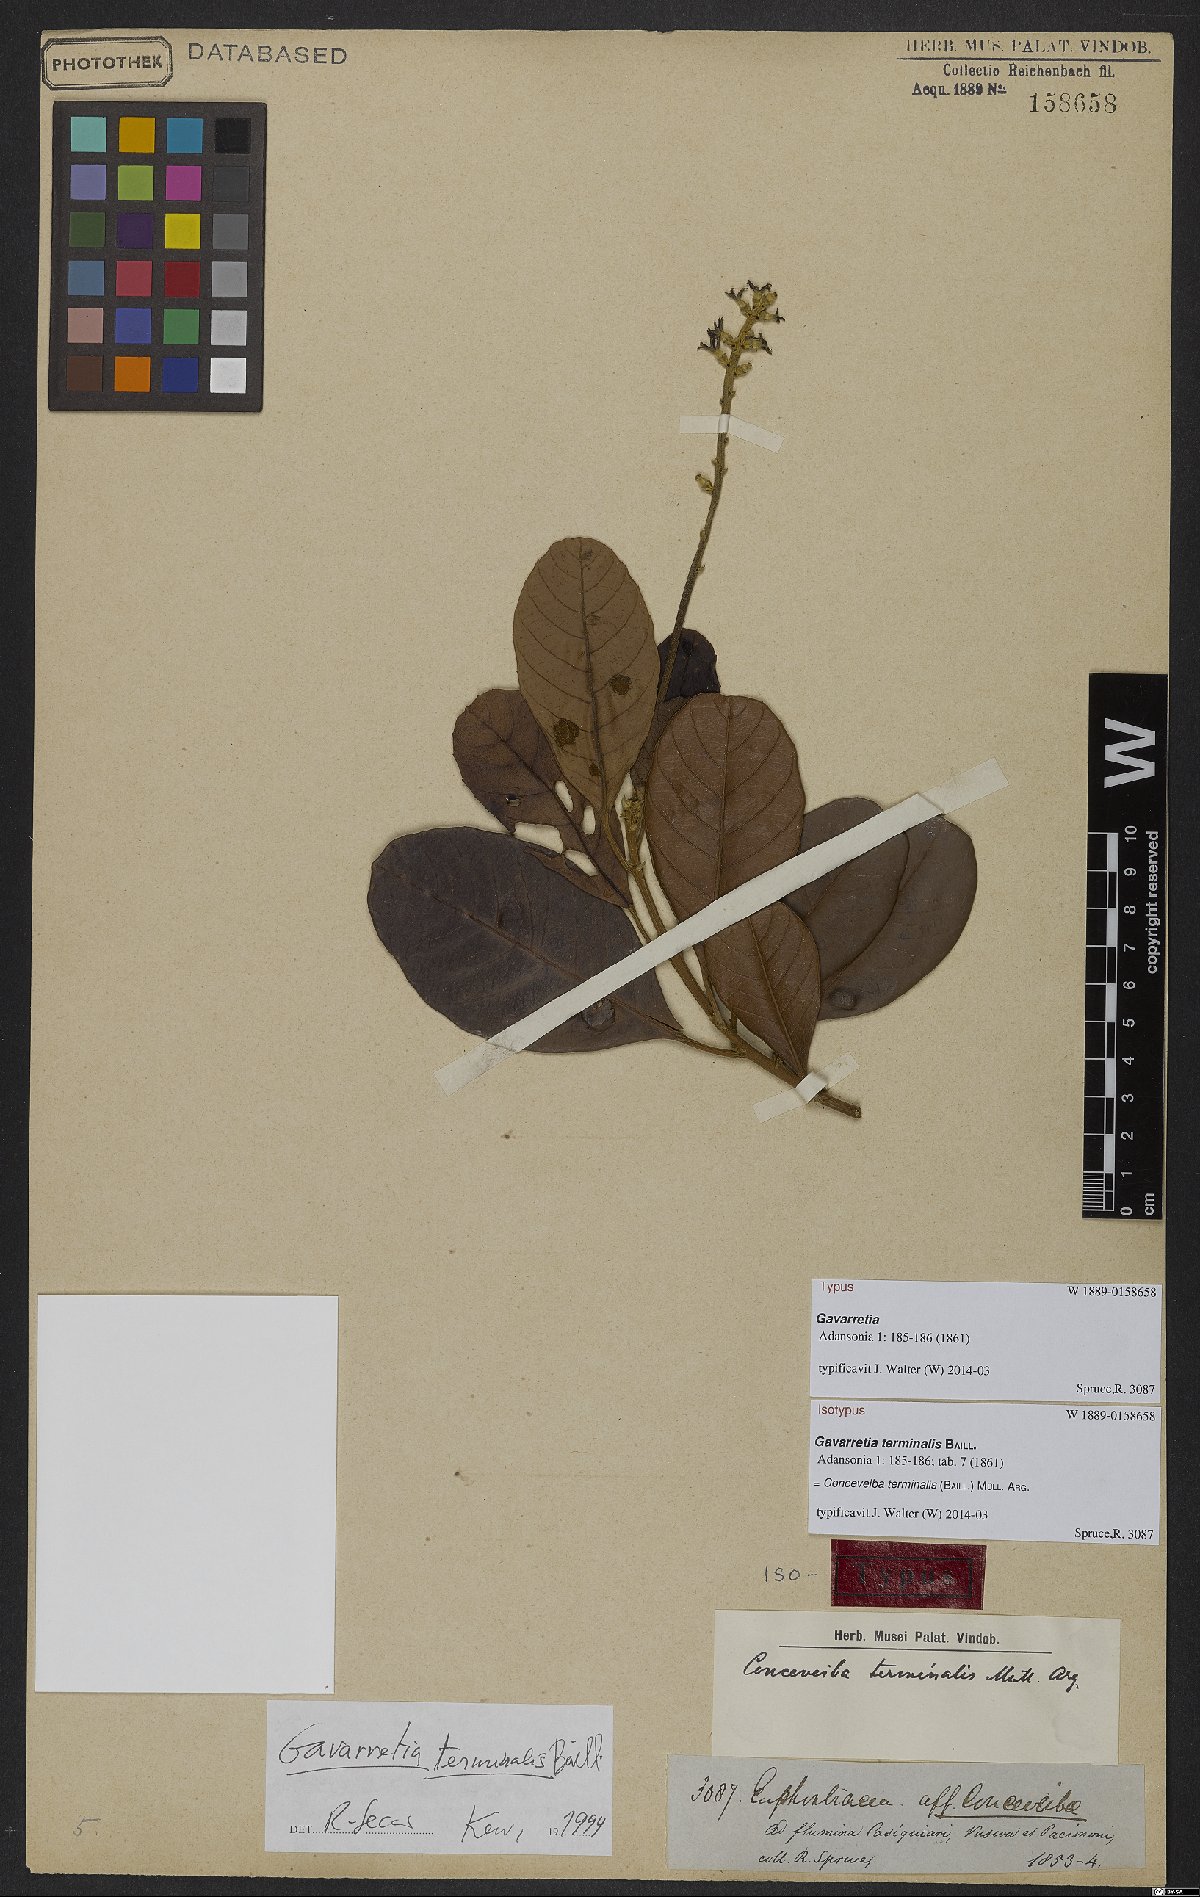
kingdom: Plantae
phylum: Tracheophyta
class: Magnoliopsida
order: Malpighiales
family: Euphorbiaceae
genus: Conceveiba
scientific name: Conceveiba terminalis
